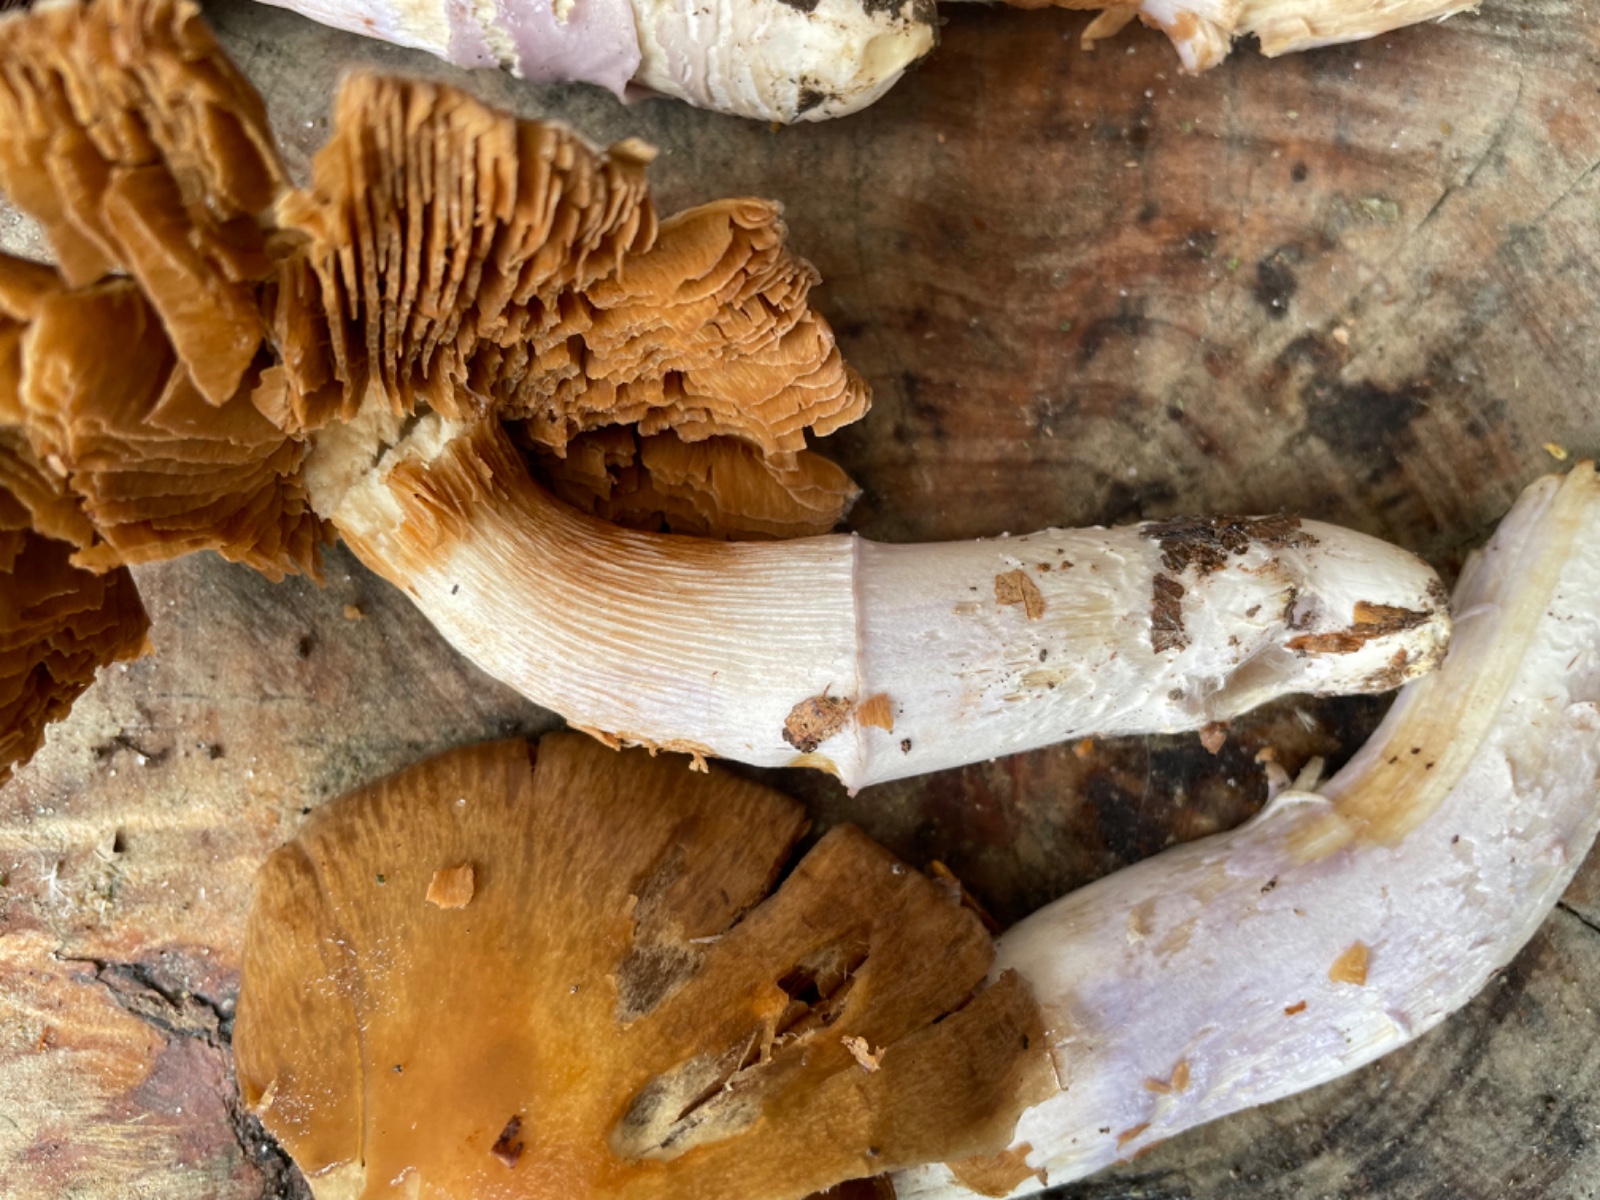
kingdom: Fungi
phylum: Basidiomycota
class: Agaricomycetes
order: Agaricales
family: Cortinariaceae
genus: Cortinarius
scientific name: Cortinarius elatior
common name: høj slørhat
